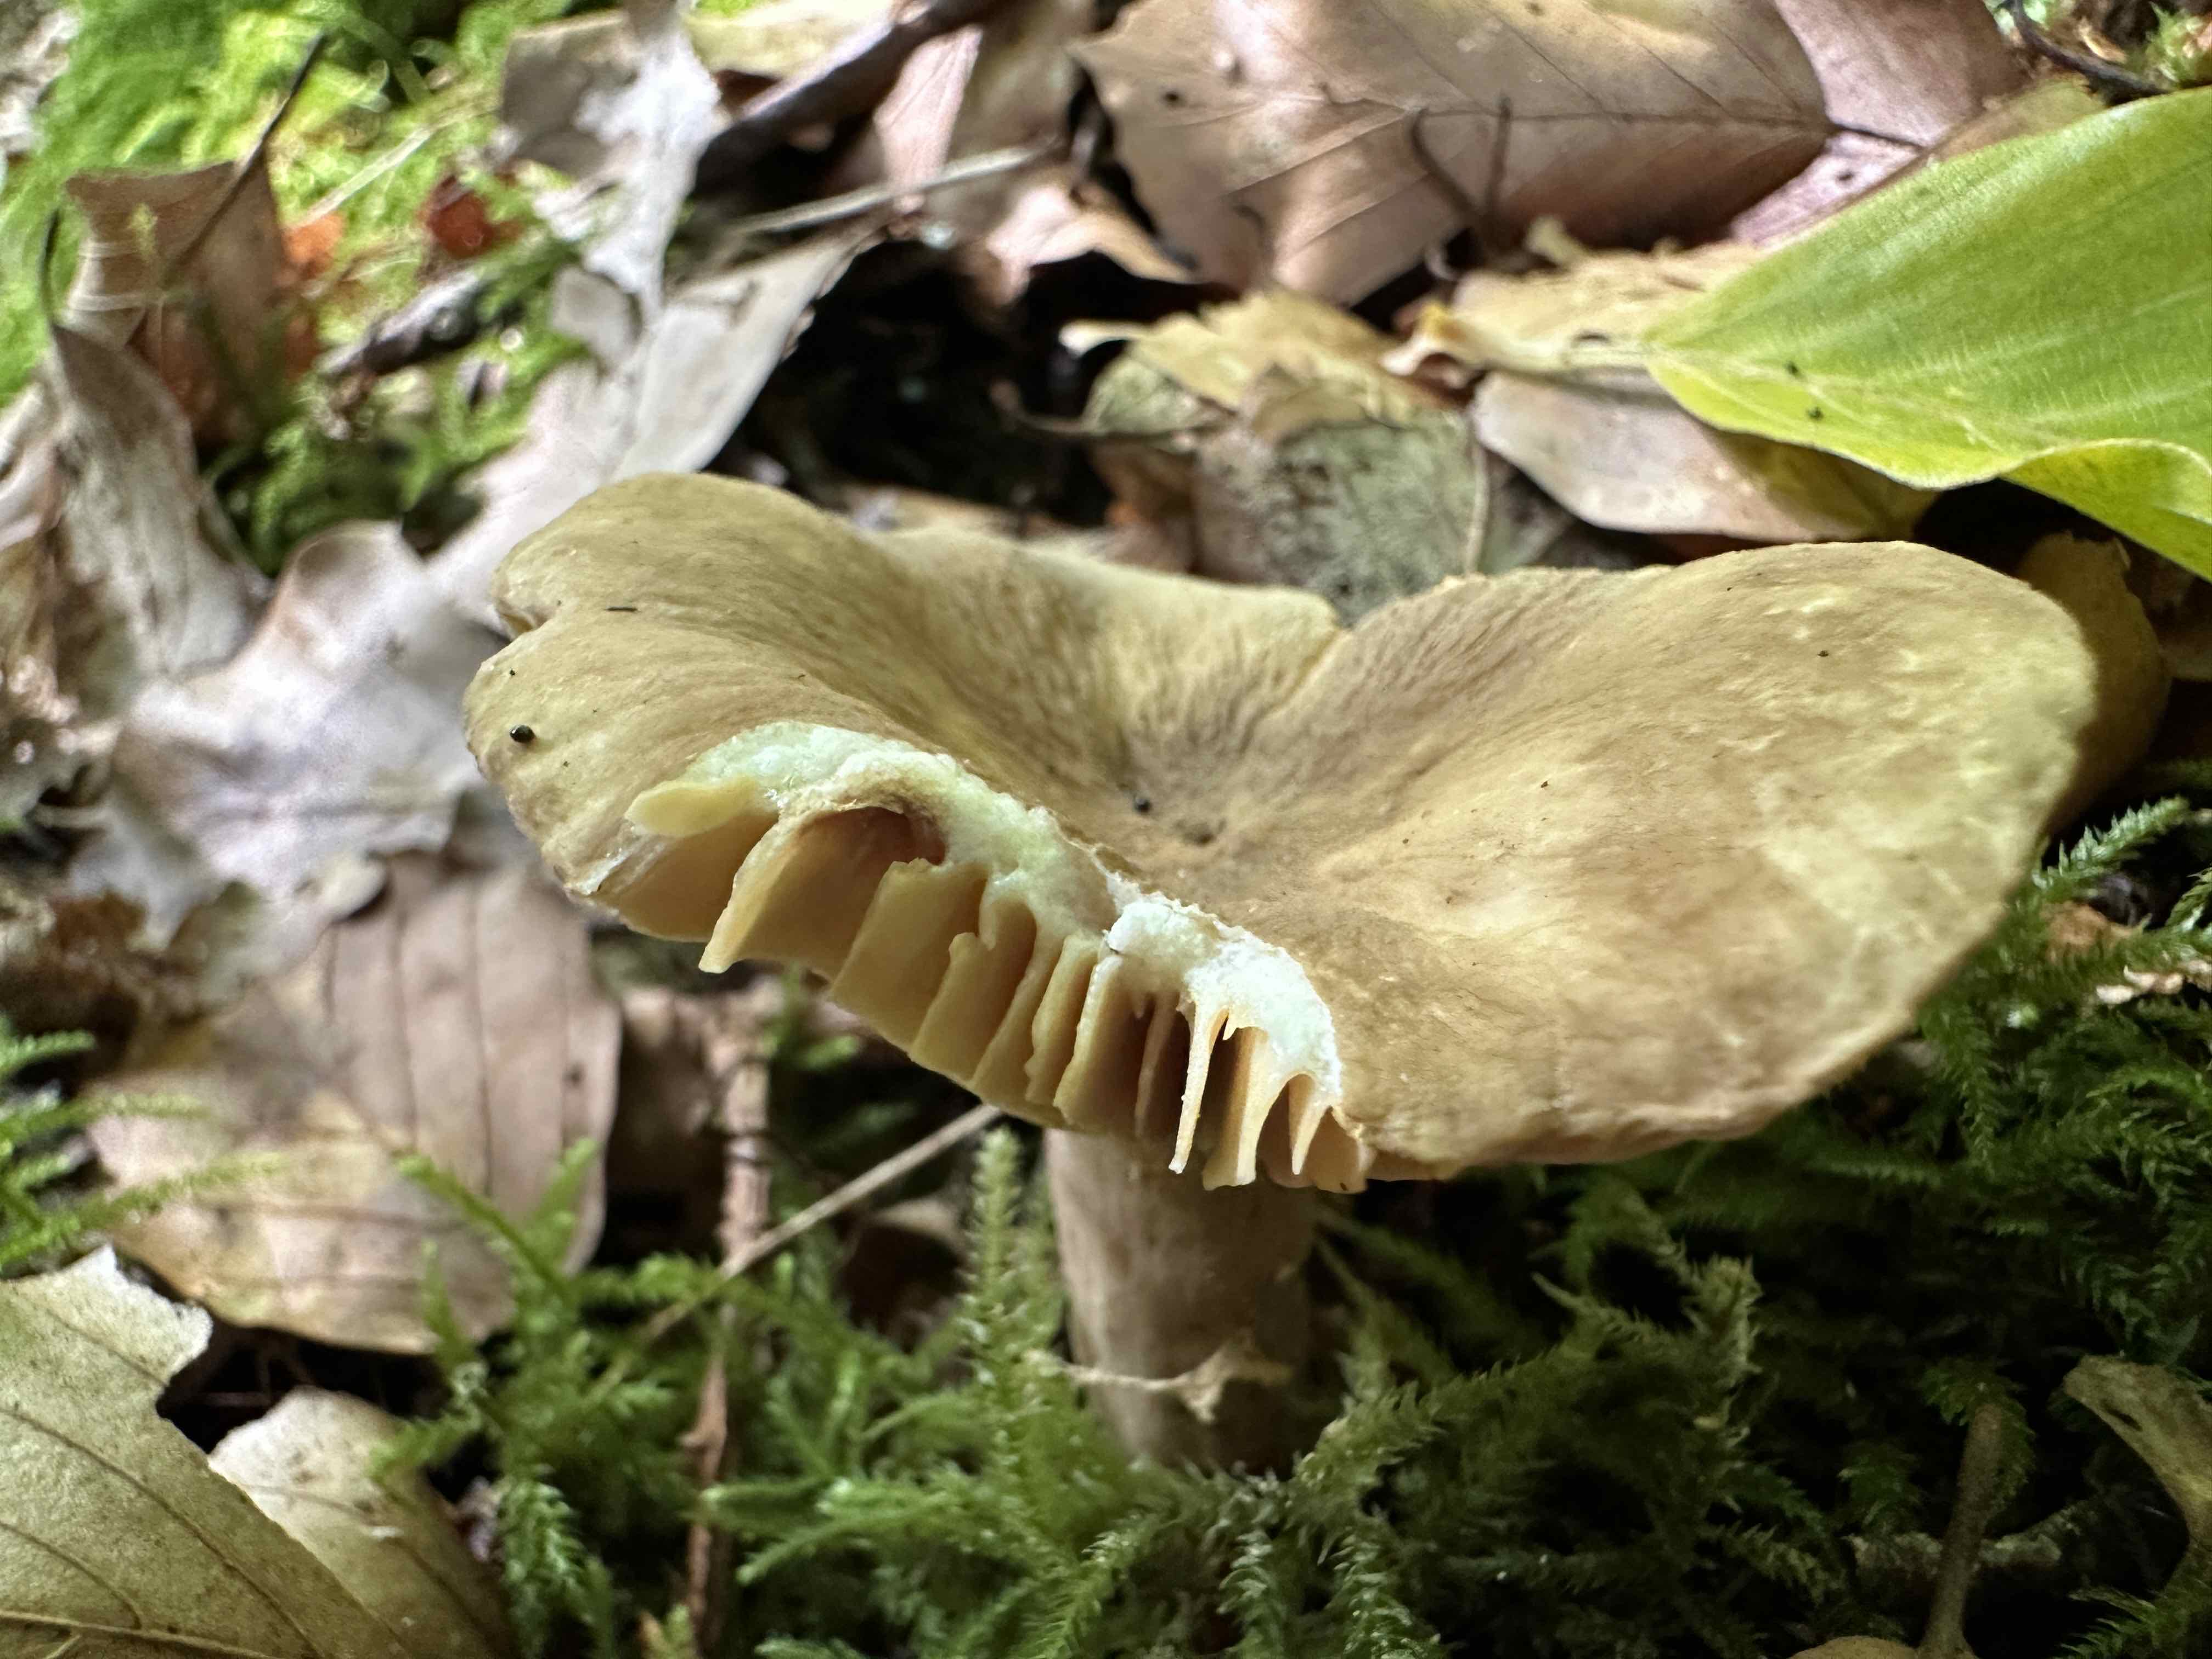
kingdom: Fungi
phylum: Basidiomycota
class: Agaricomycetes
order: Russulales
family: Russulaceae
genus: Lactarius
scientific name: Lactarius
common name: mælkehat
